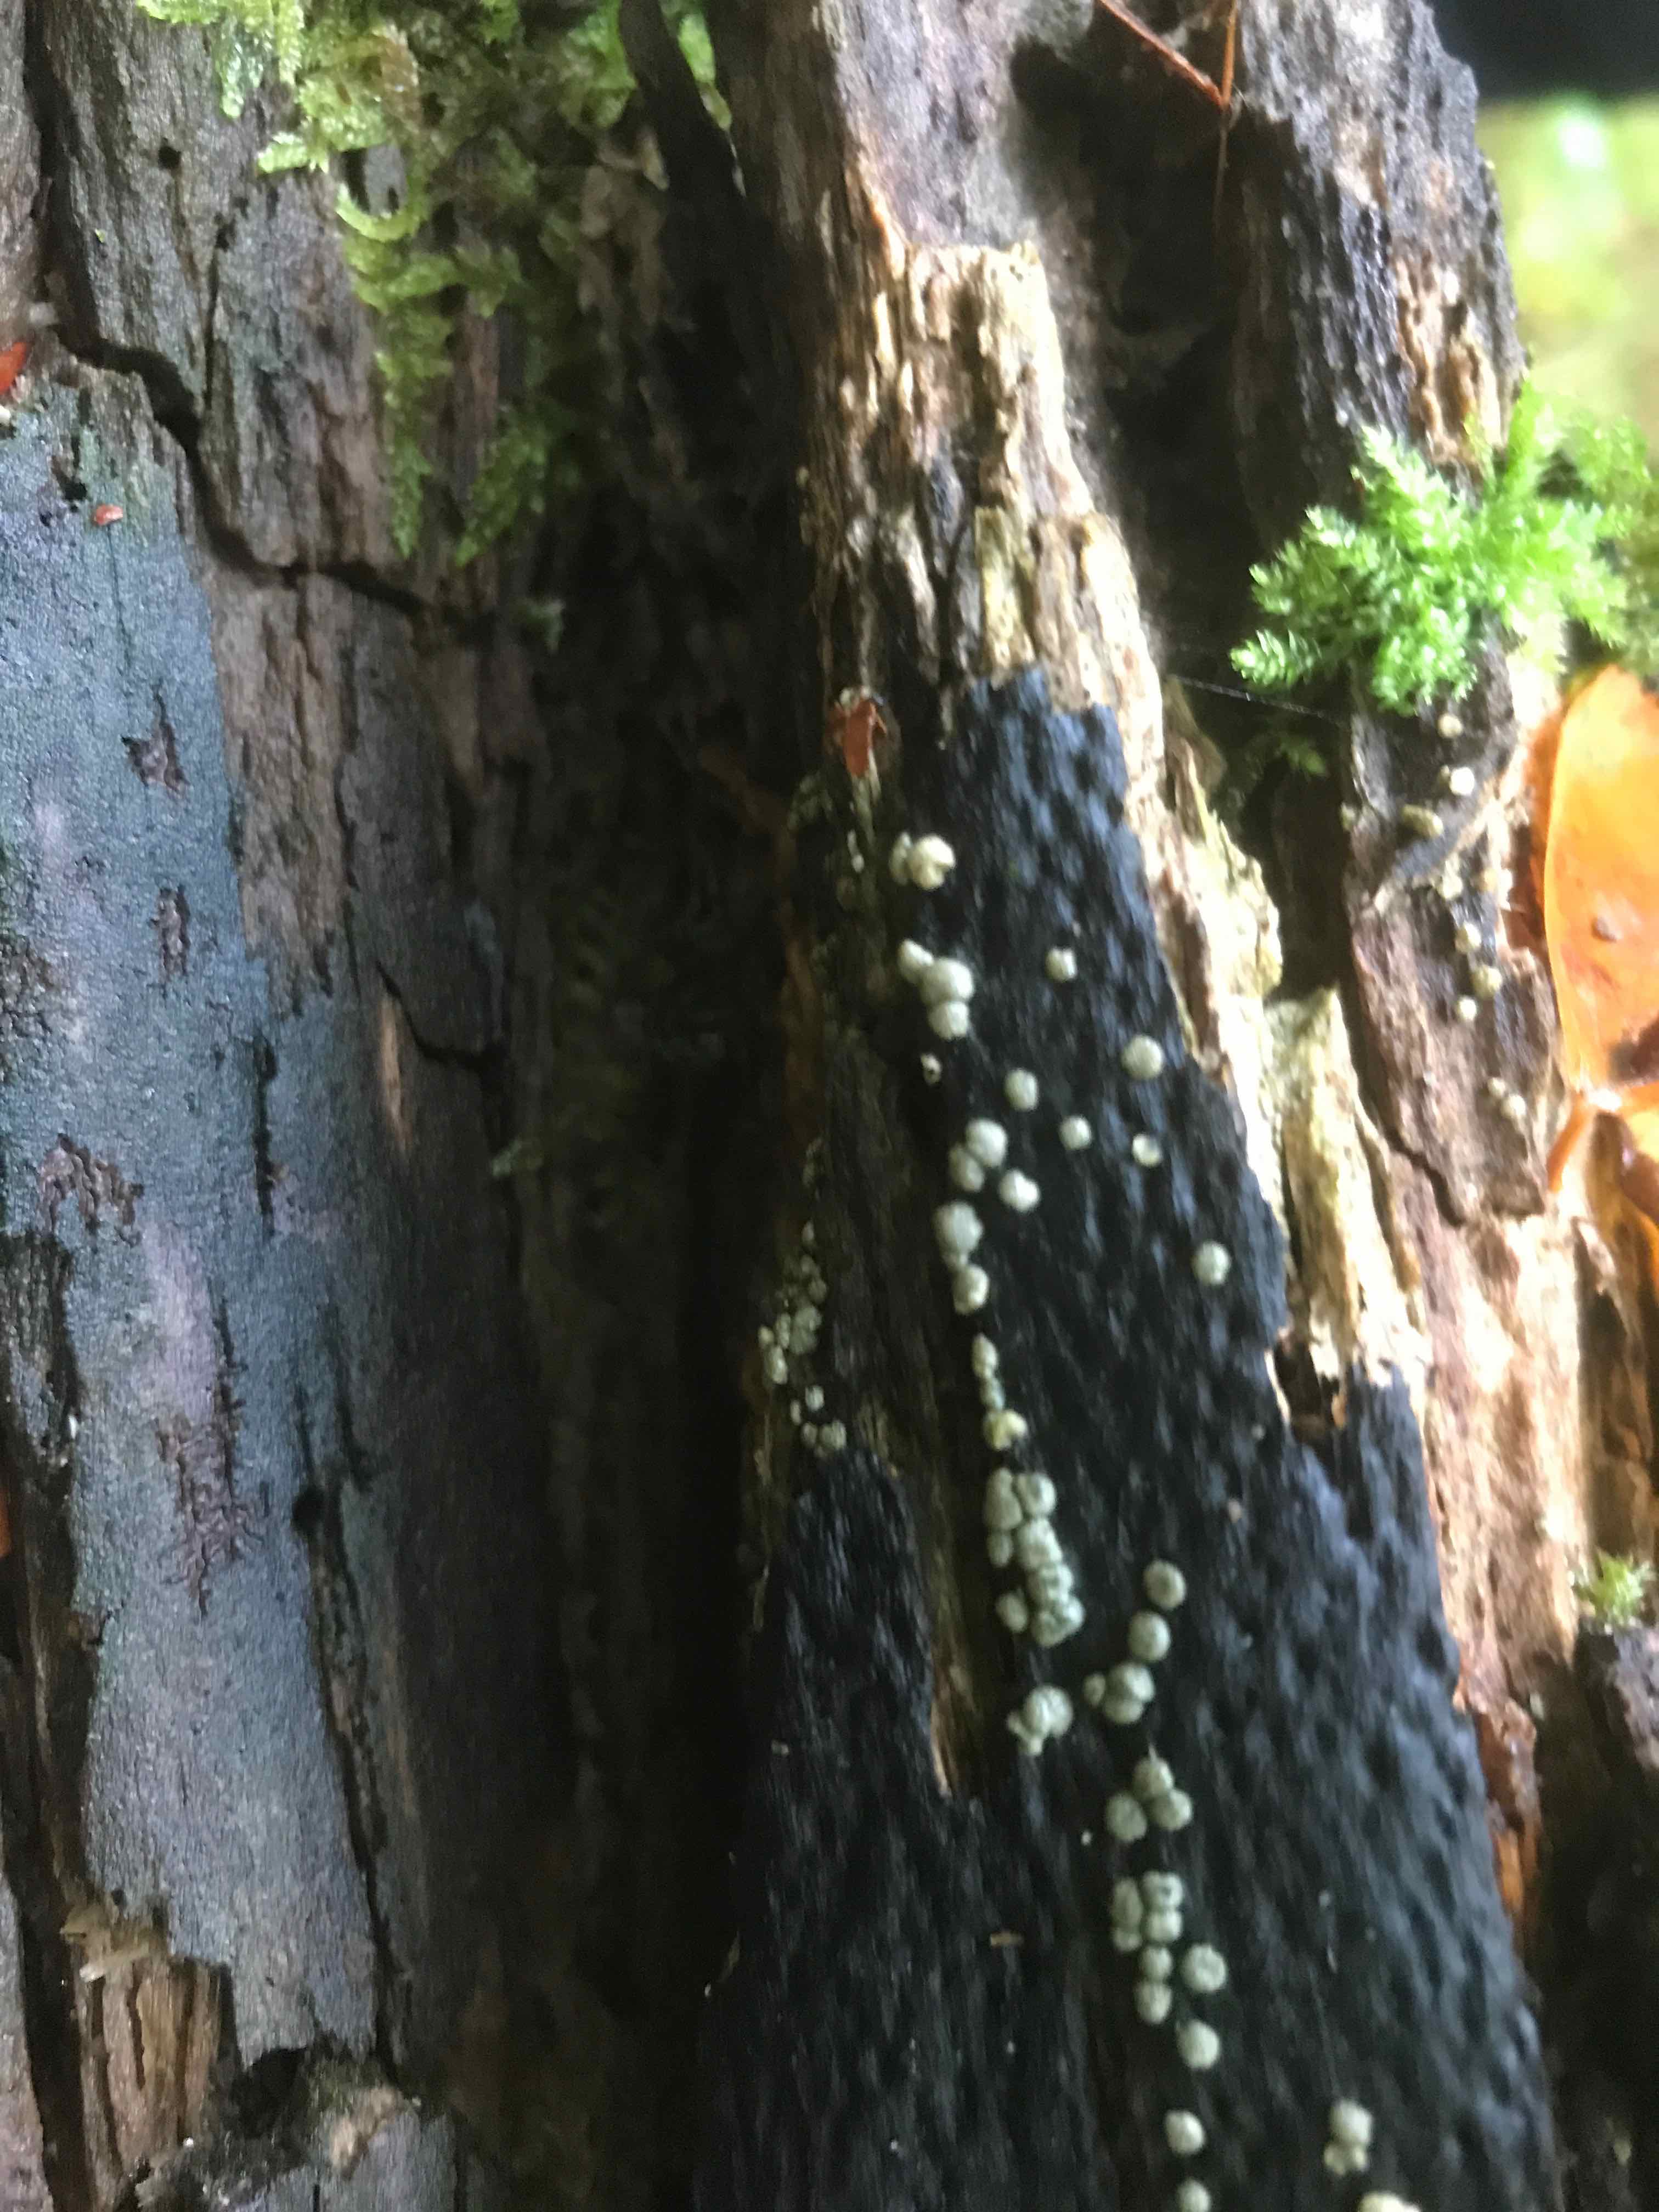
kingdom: Fungi
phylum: Ascomycota
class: Sordariomycetes
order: Hypocreales
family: Hypocreaceae
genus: Trichoderma
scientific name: Trichoderma strictipile
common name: grønprikket kødkerne
